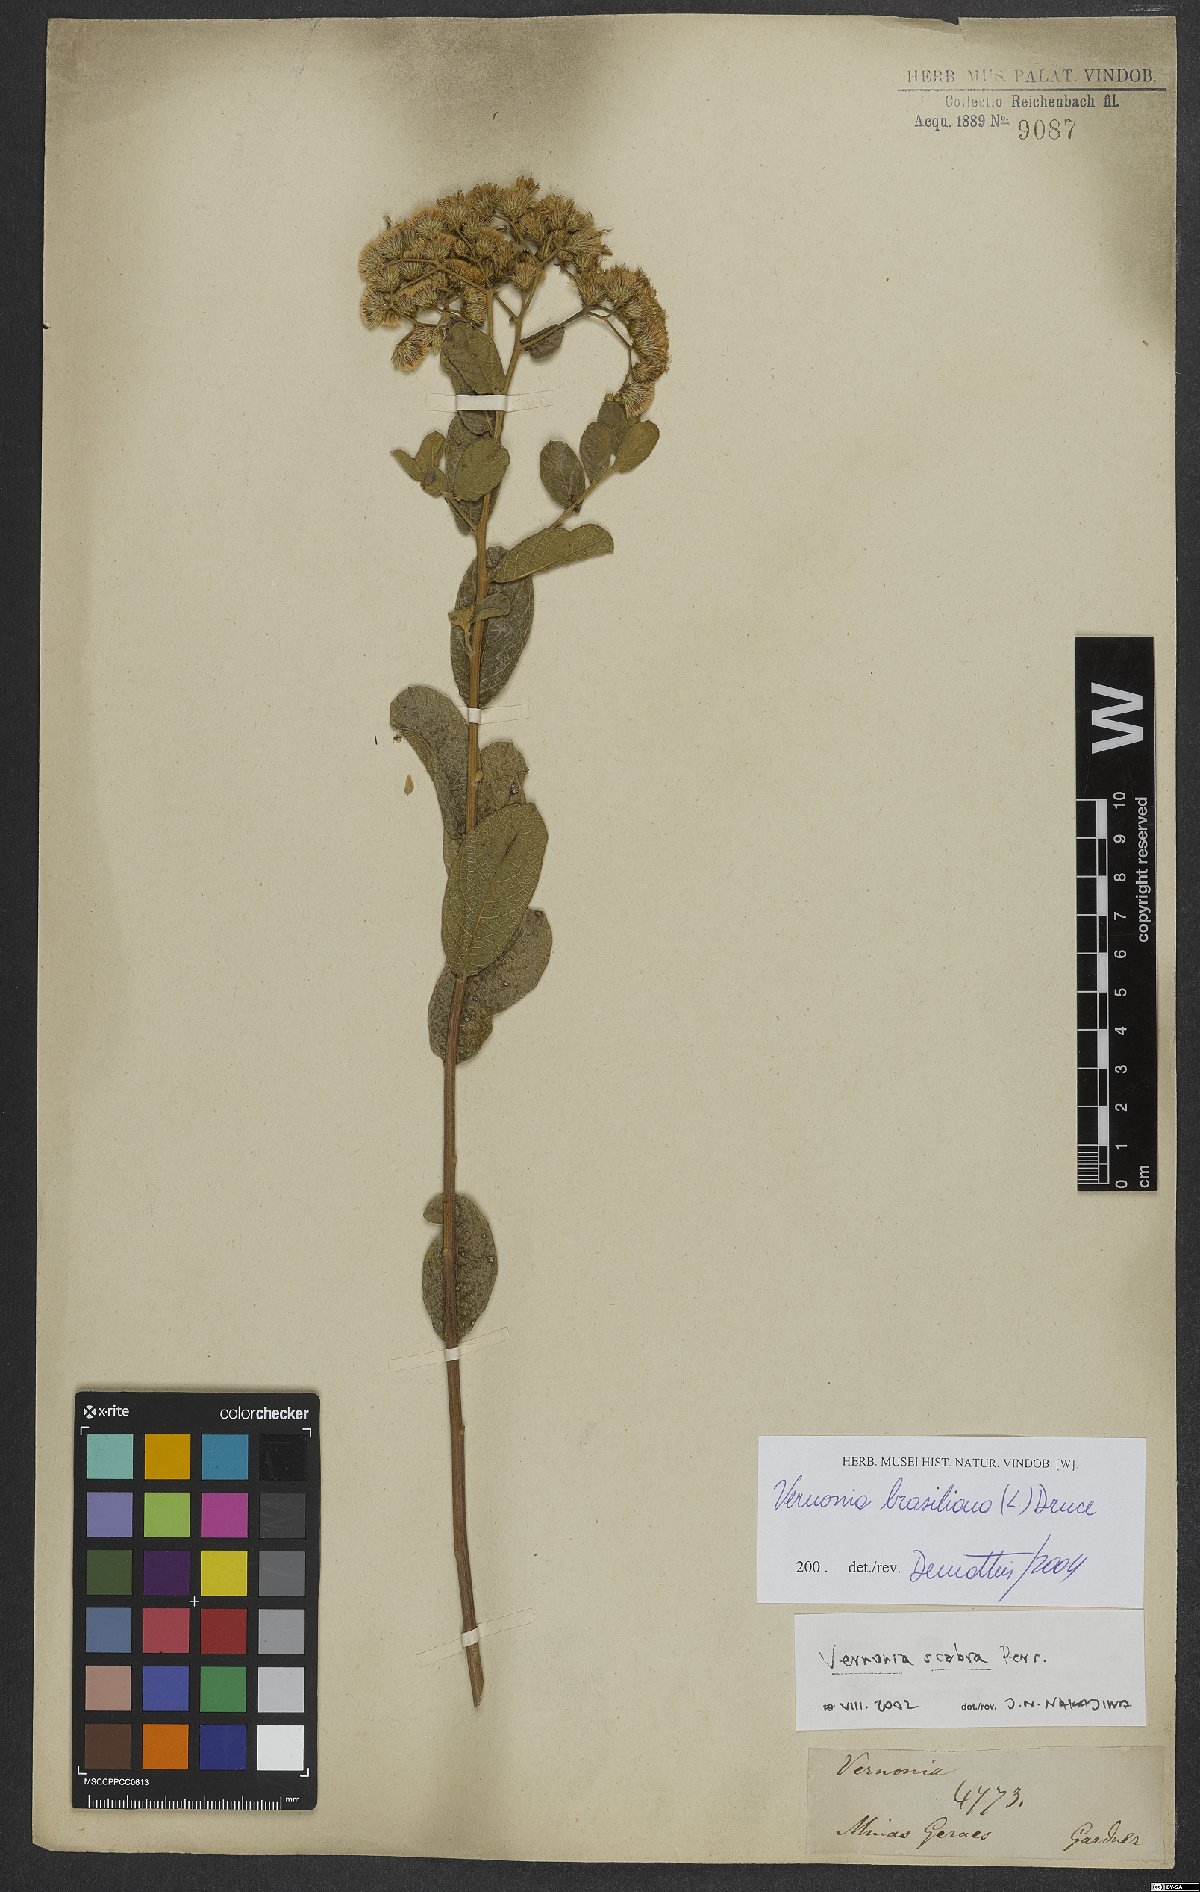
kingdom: Plantae
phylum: Tracheophyta
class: Magnoliopsida
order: Asterales
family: Asteraceae
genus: Vernonanthura
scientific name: Vernonanthura brasiliana
